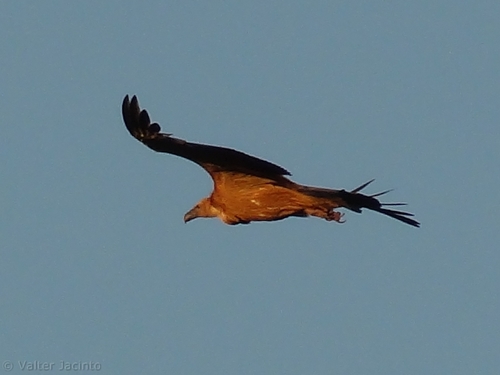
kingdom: Animalia
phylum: Chordata
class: Aves
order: Accipitriformes
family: Accipitridae
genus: Gyps
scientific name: Gyps fulvus
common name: Griffon vulture
